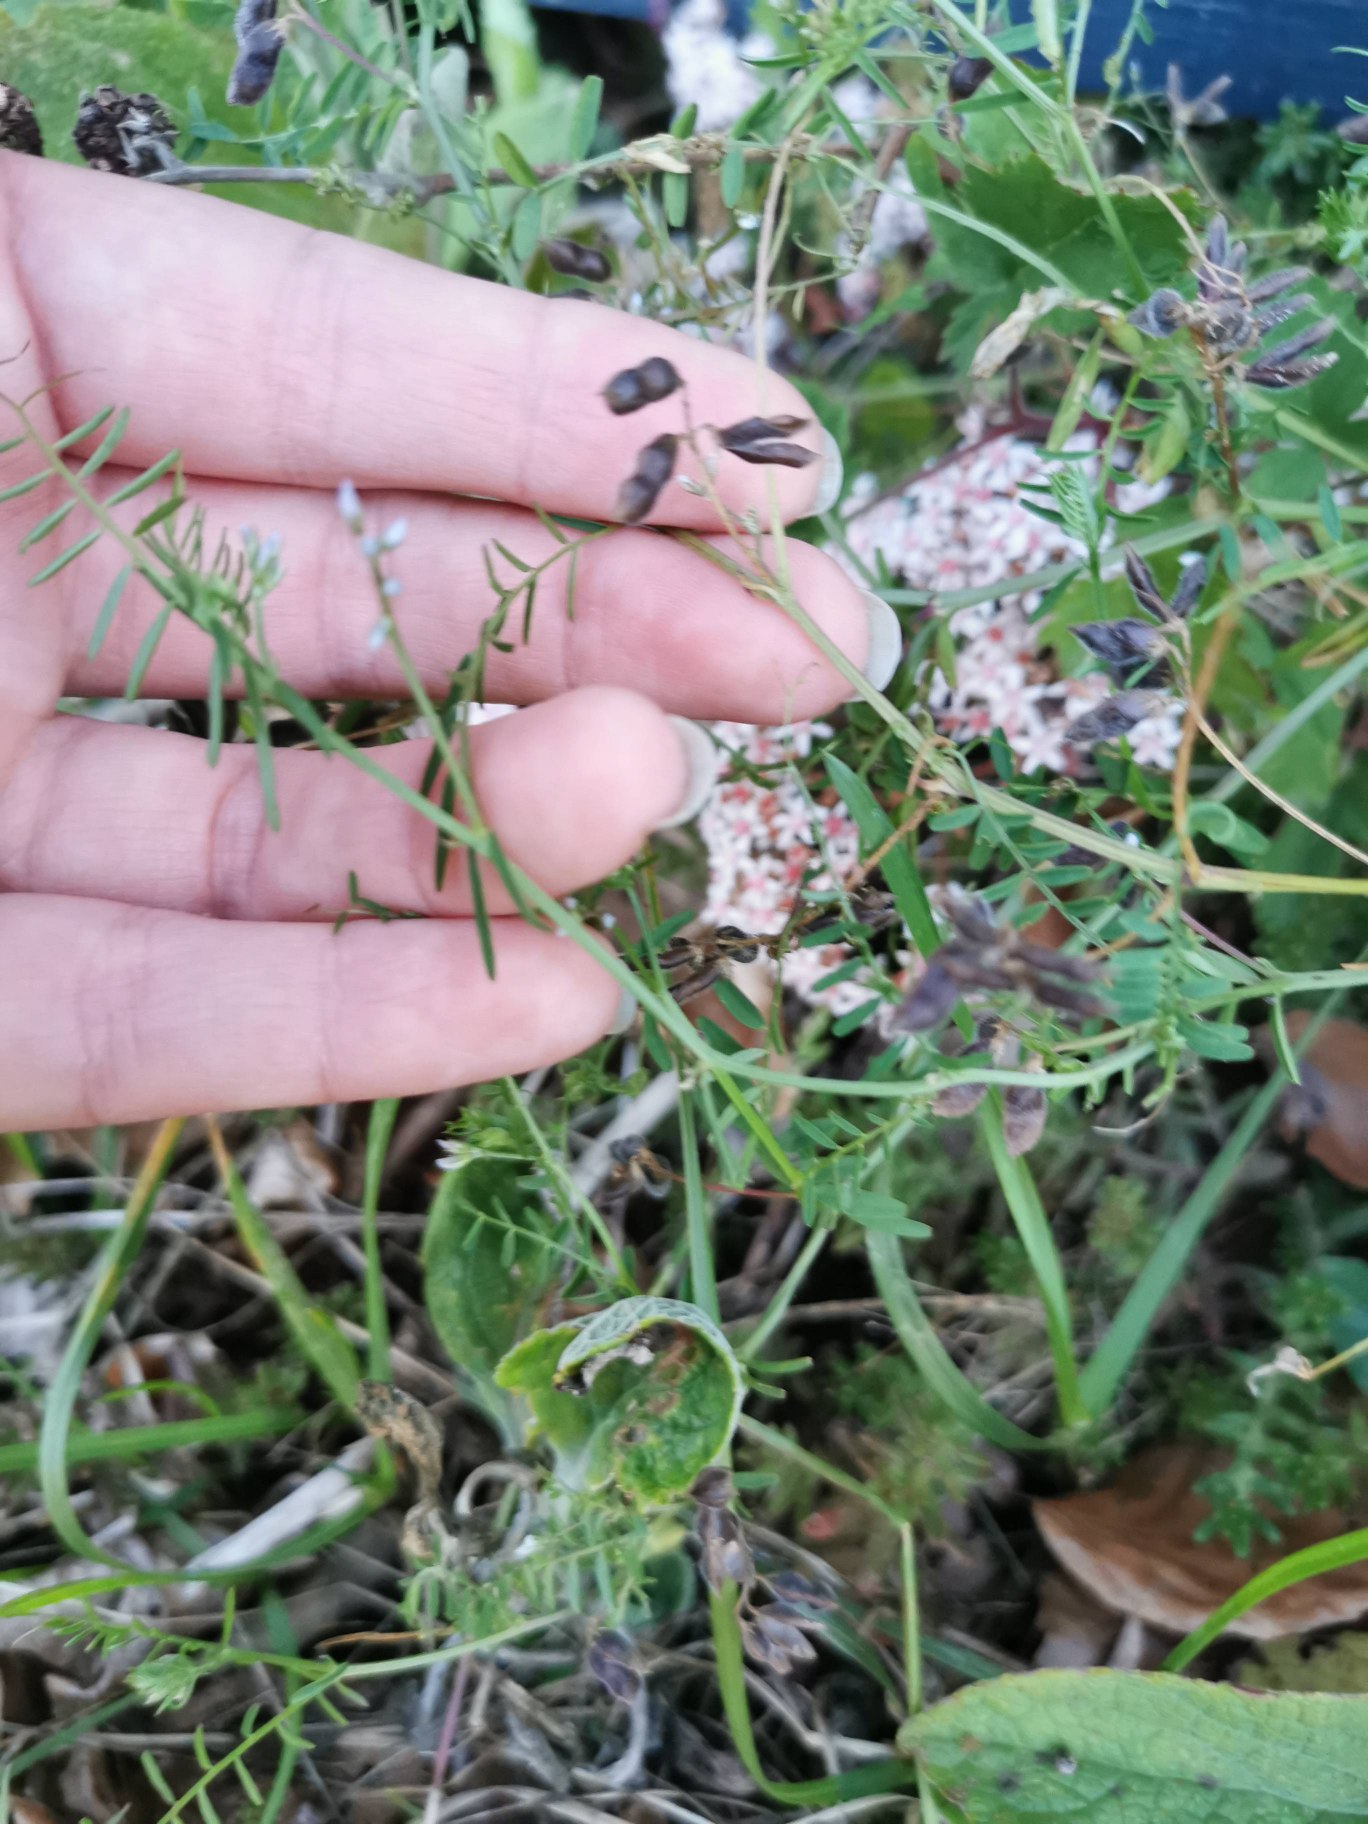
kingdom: Plantae
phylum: Tracheophyta
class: Magnoliopsida
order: Fabales
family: Fabaceae
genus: Vicia
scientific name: Vicia hirsuta
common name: Tofrøet vikke
